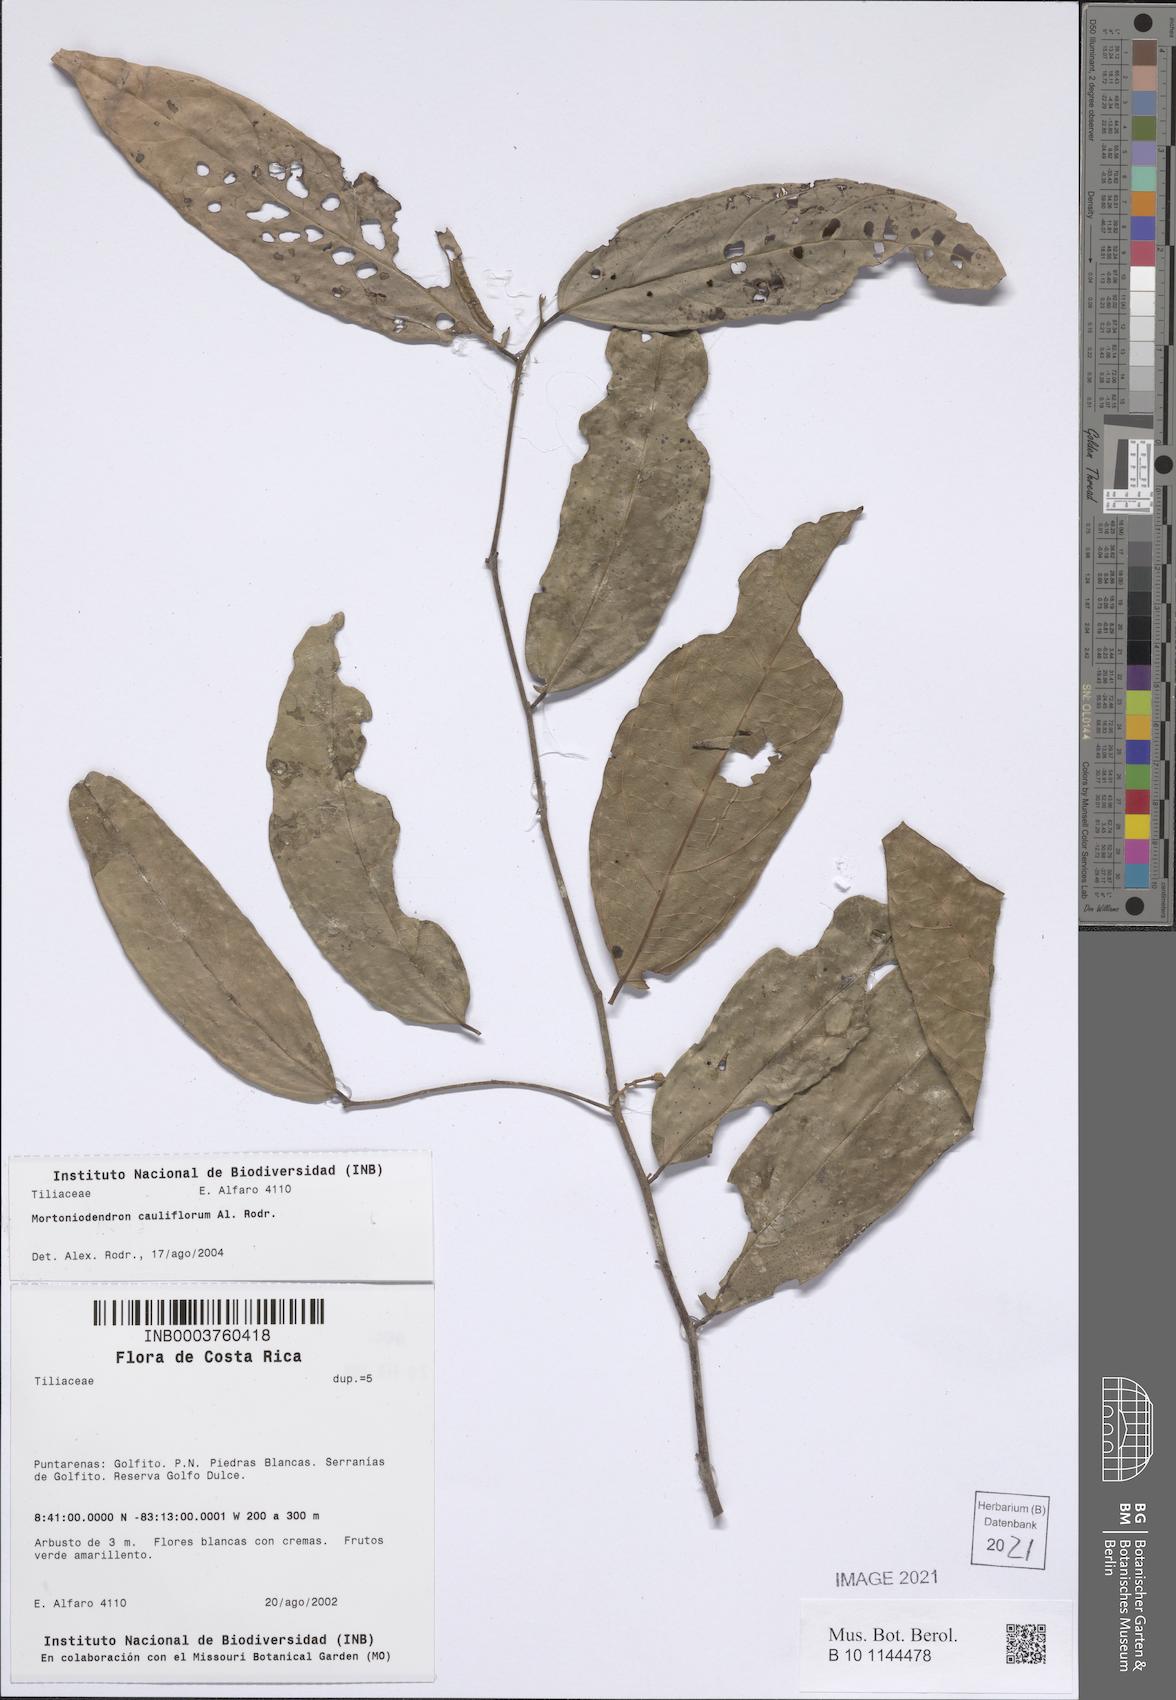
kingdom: Plantae
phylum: Tracheophyta
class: Magnoliopsida
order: Malvales
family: Malvaceae
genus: Mortoniodendron
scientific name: Mortoniodendron cauliflorum
